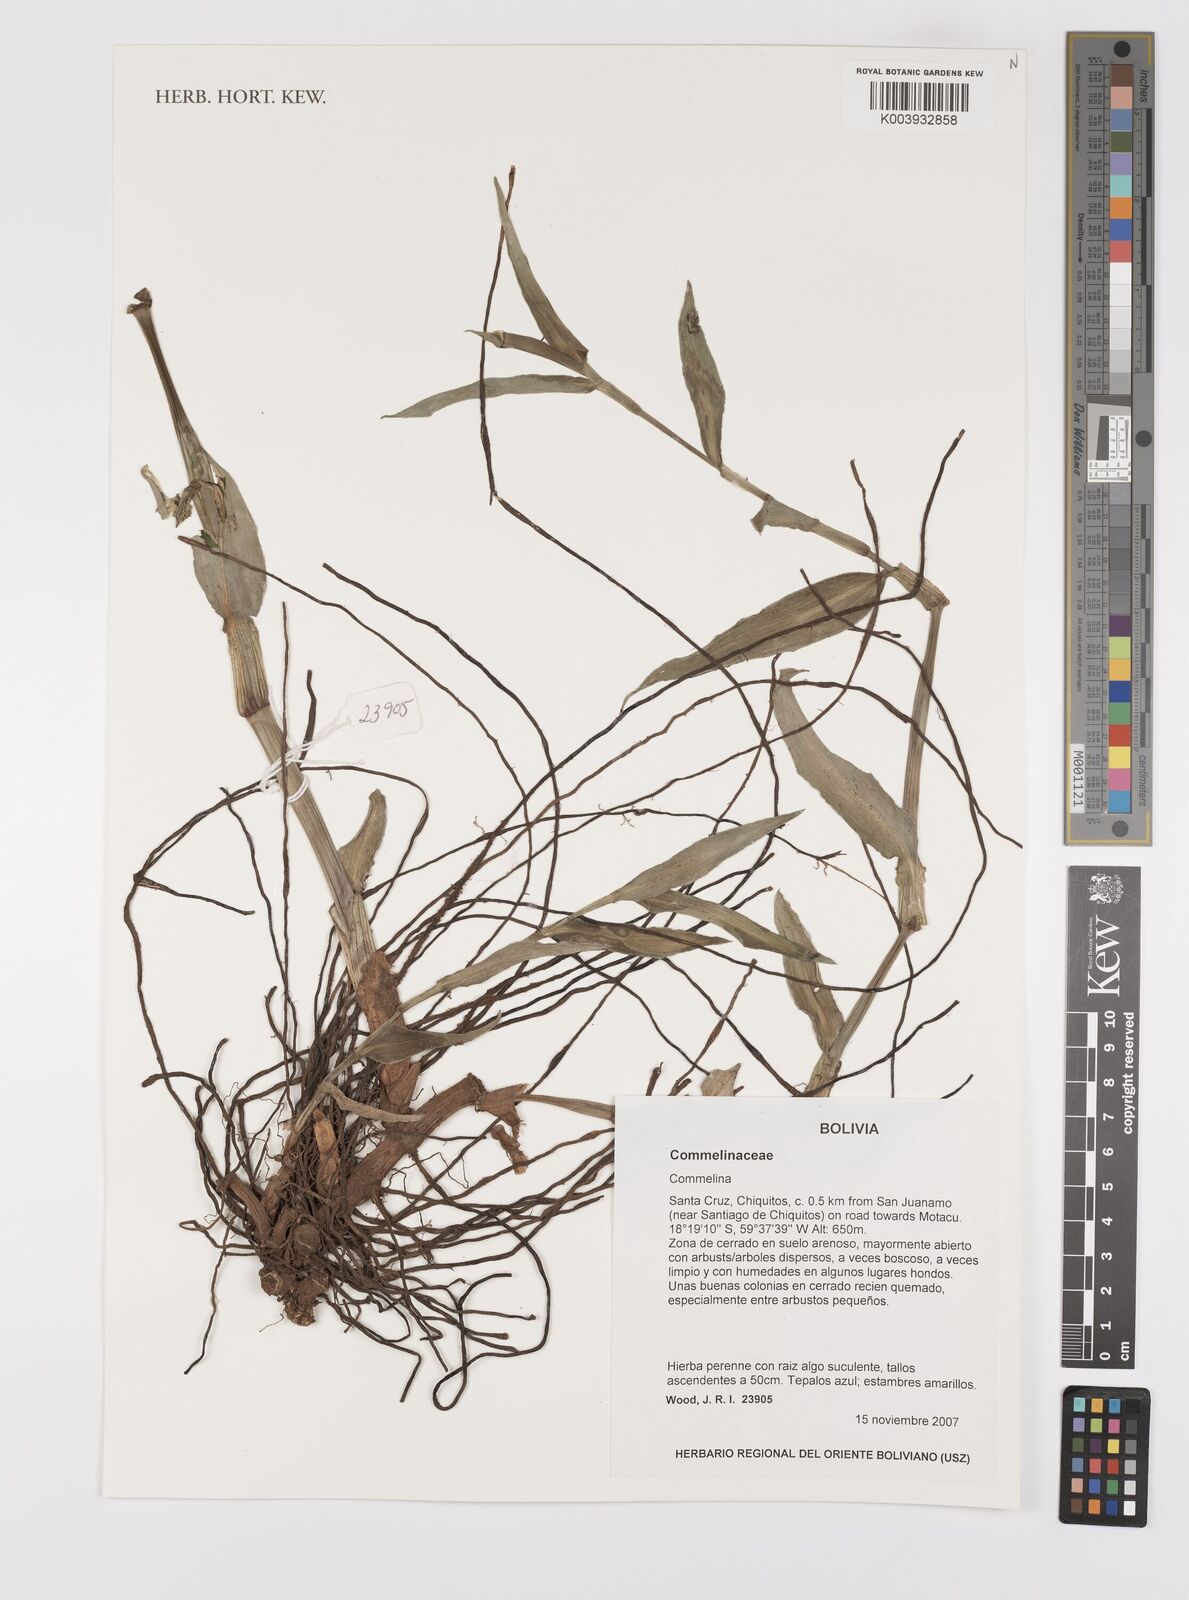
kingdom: Plantae
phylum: Tracheophyta
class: Liliopsida
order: Commelinales
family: Commelinaceae
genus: Commelina
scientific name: Commelina
